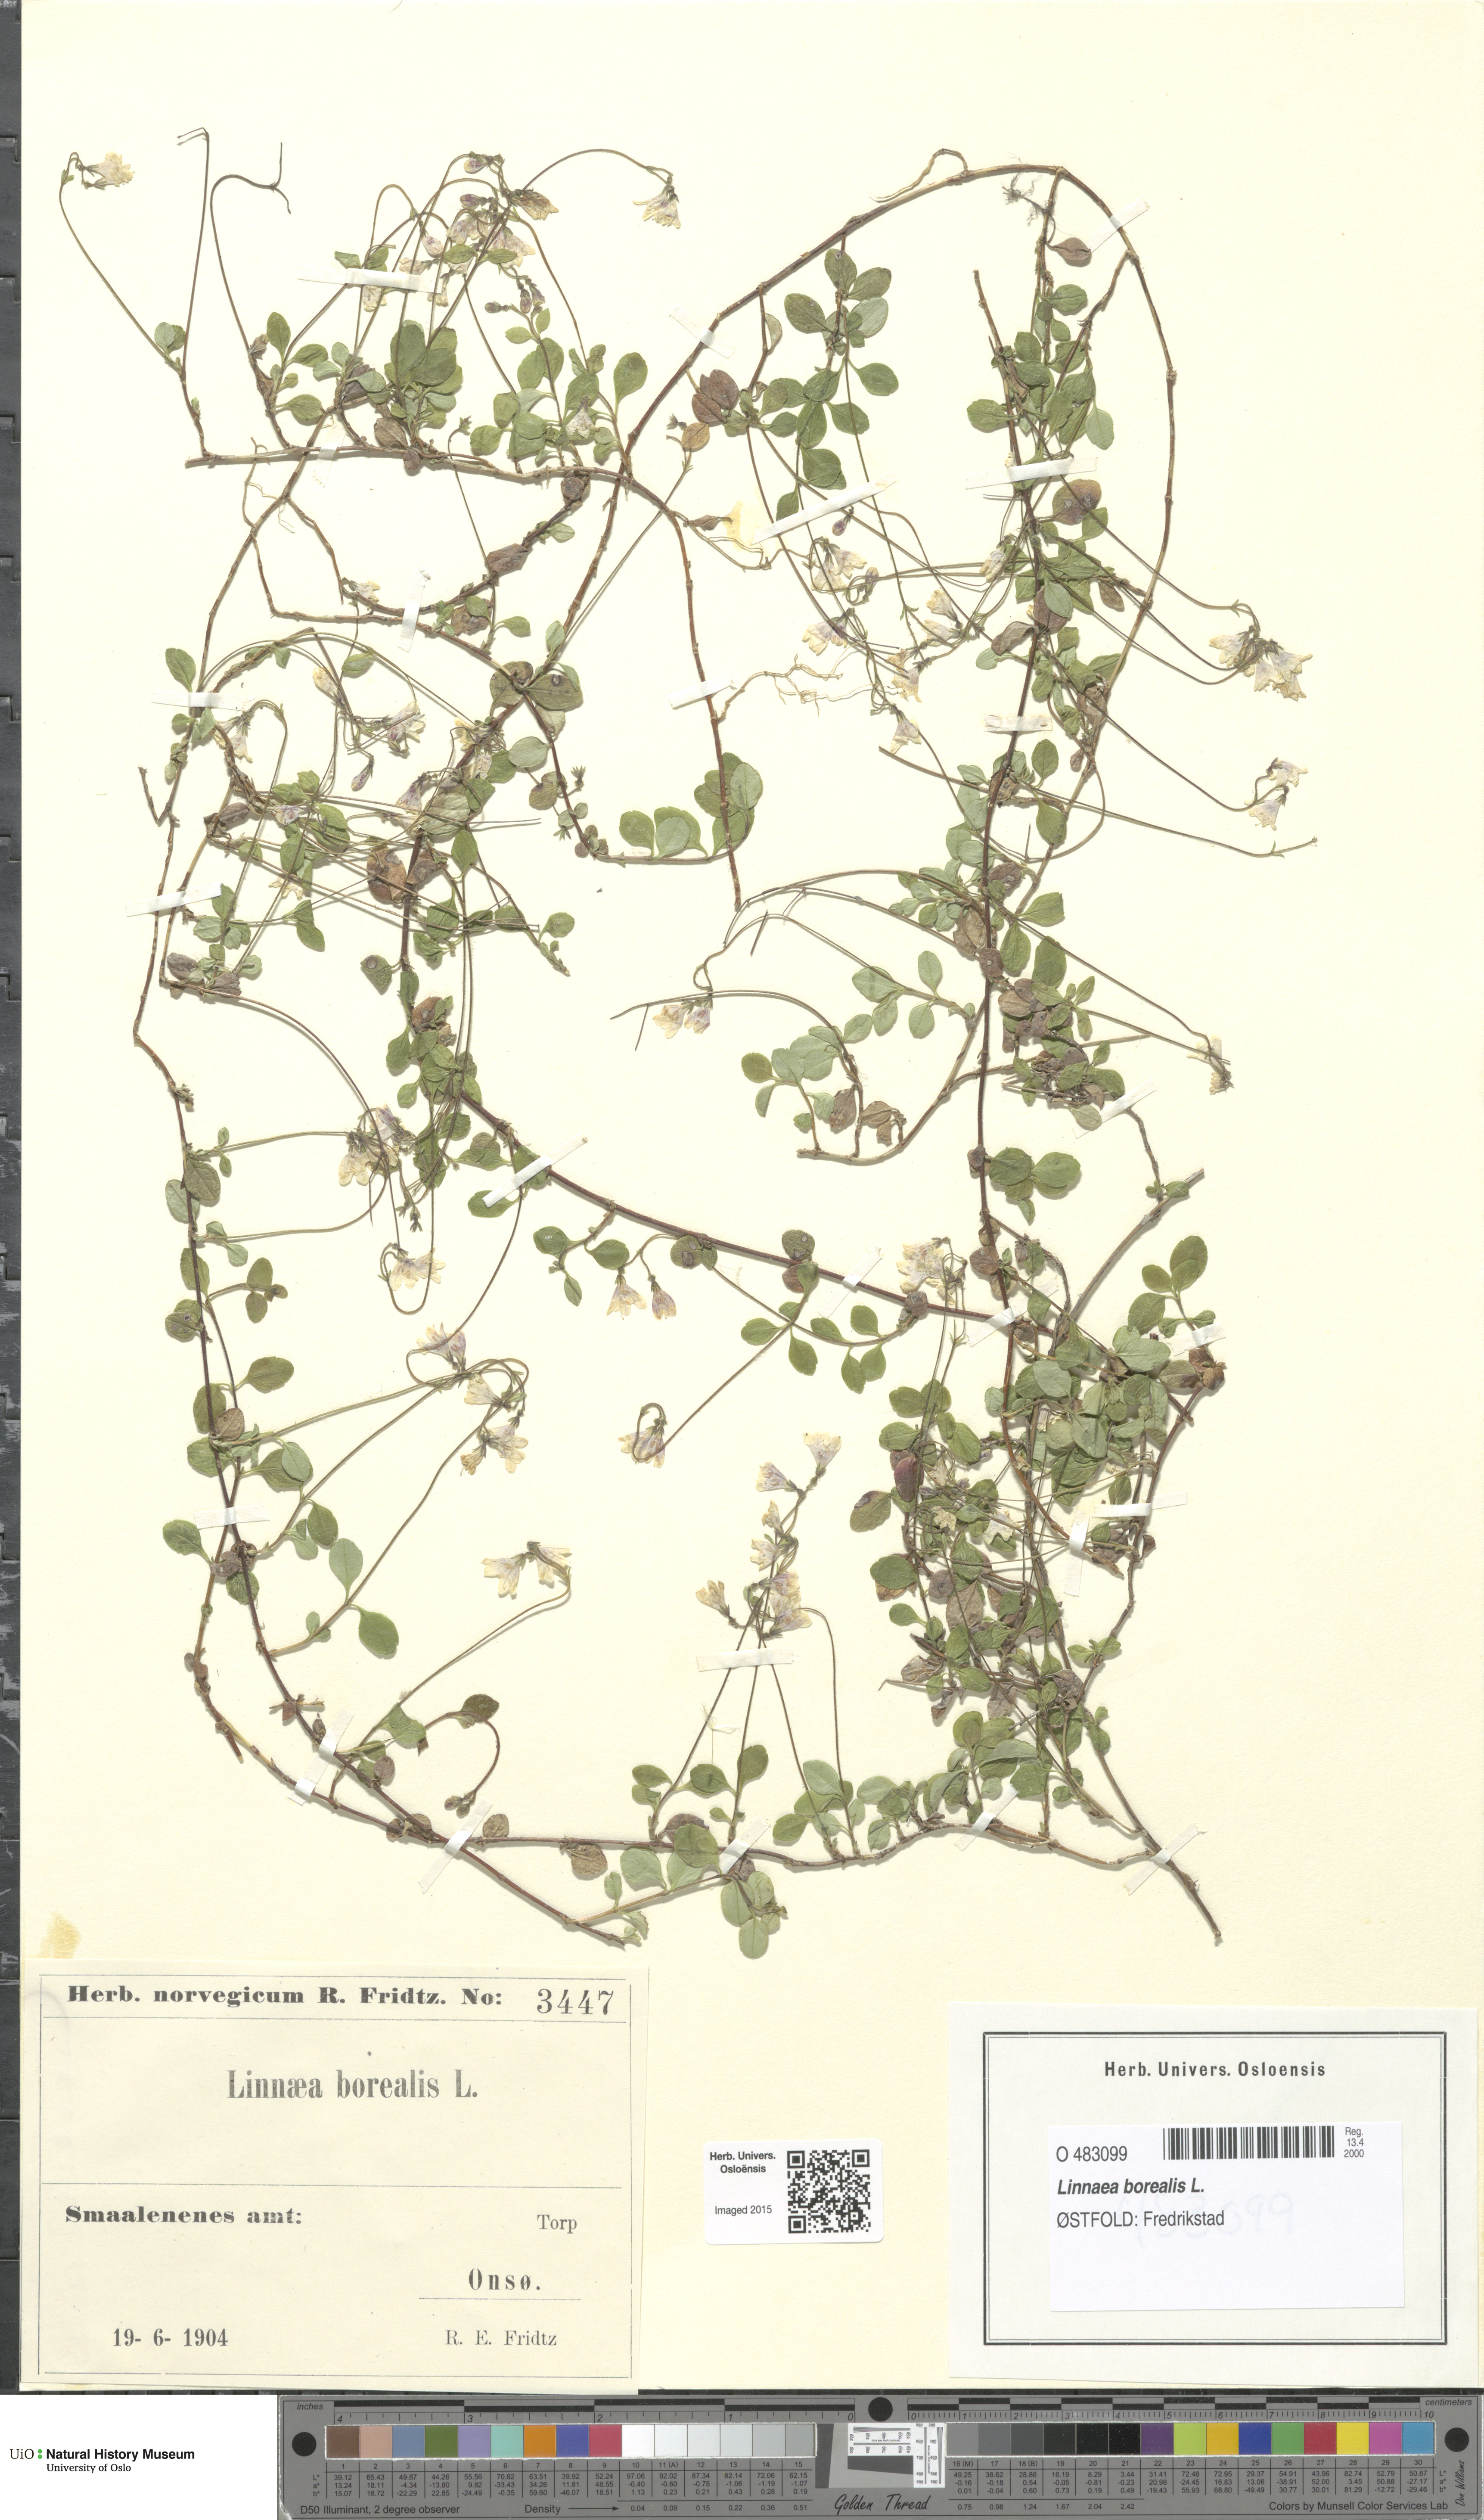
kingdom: Plantae
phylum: Tracheophyta
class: Magnoliopsida
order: Dipsacales
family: Caprifoliaceae
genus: Linnaea
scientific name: Linnaea borealis
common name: Twinflower
